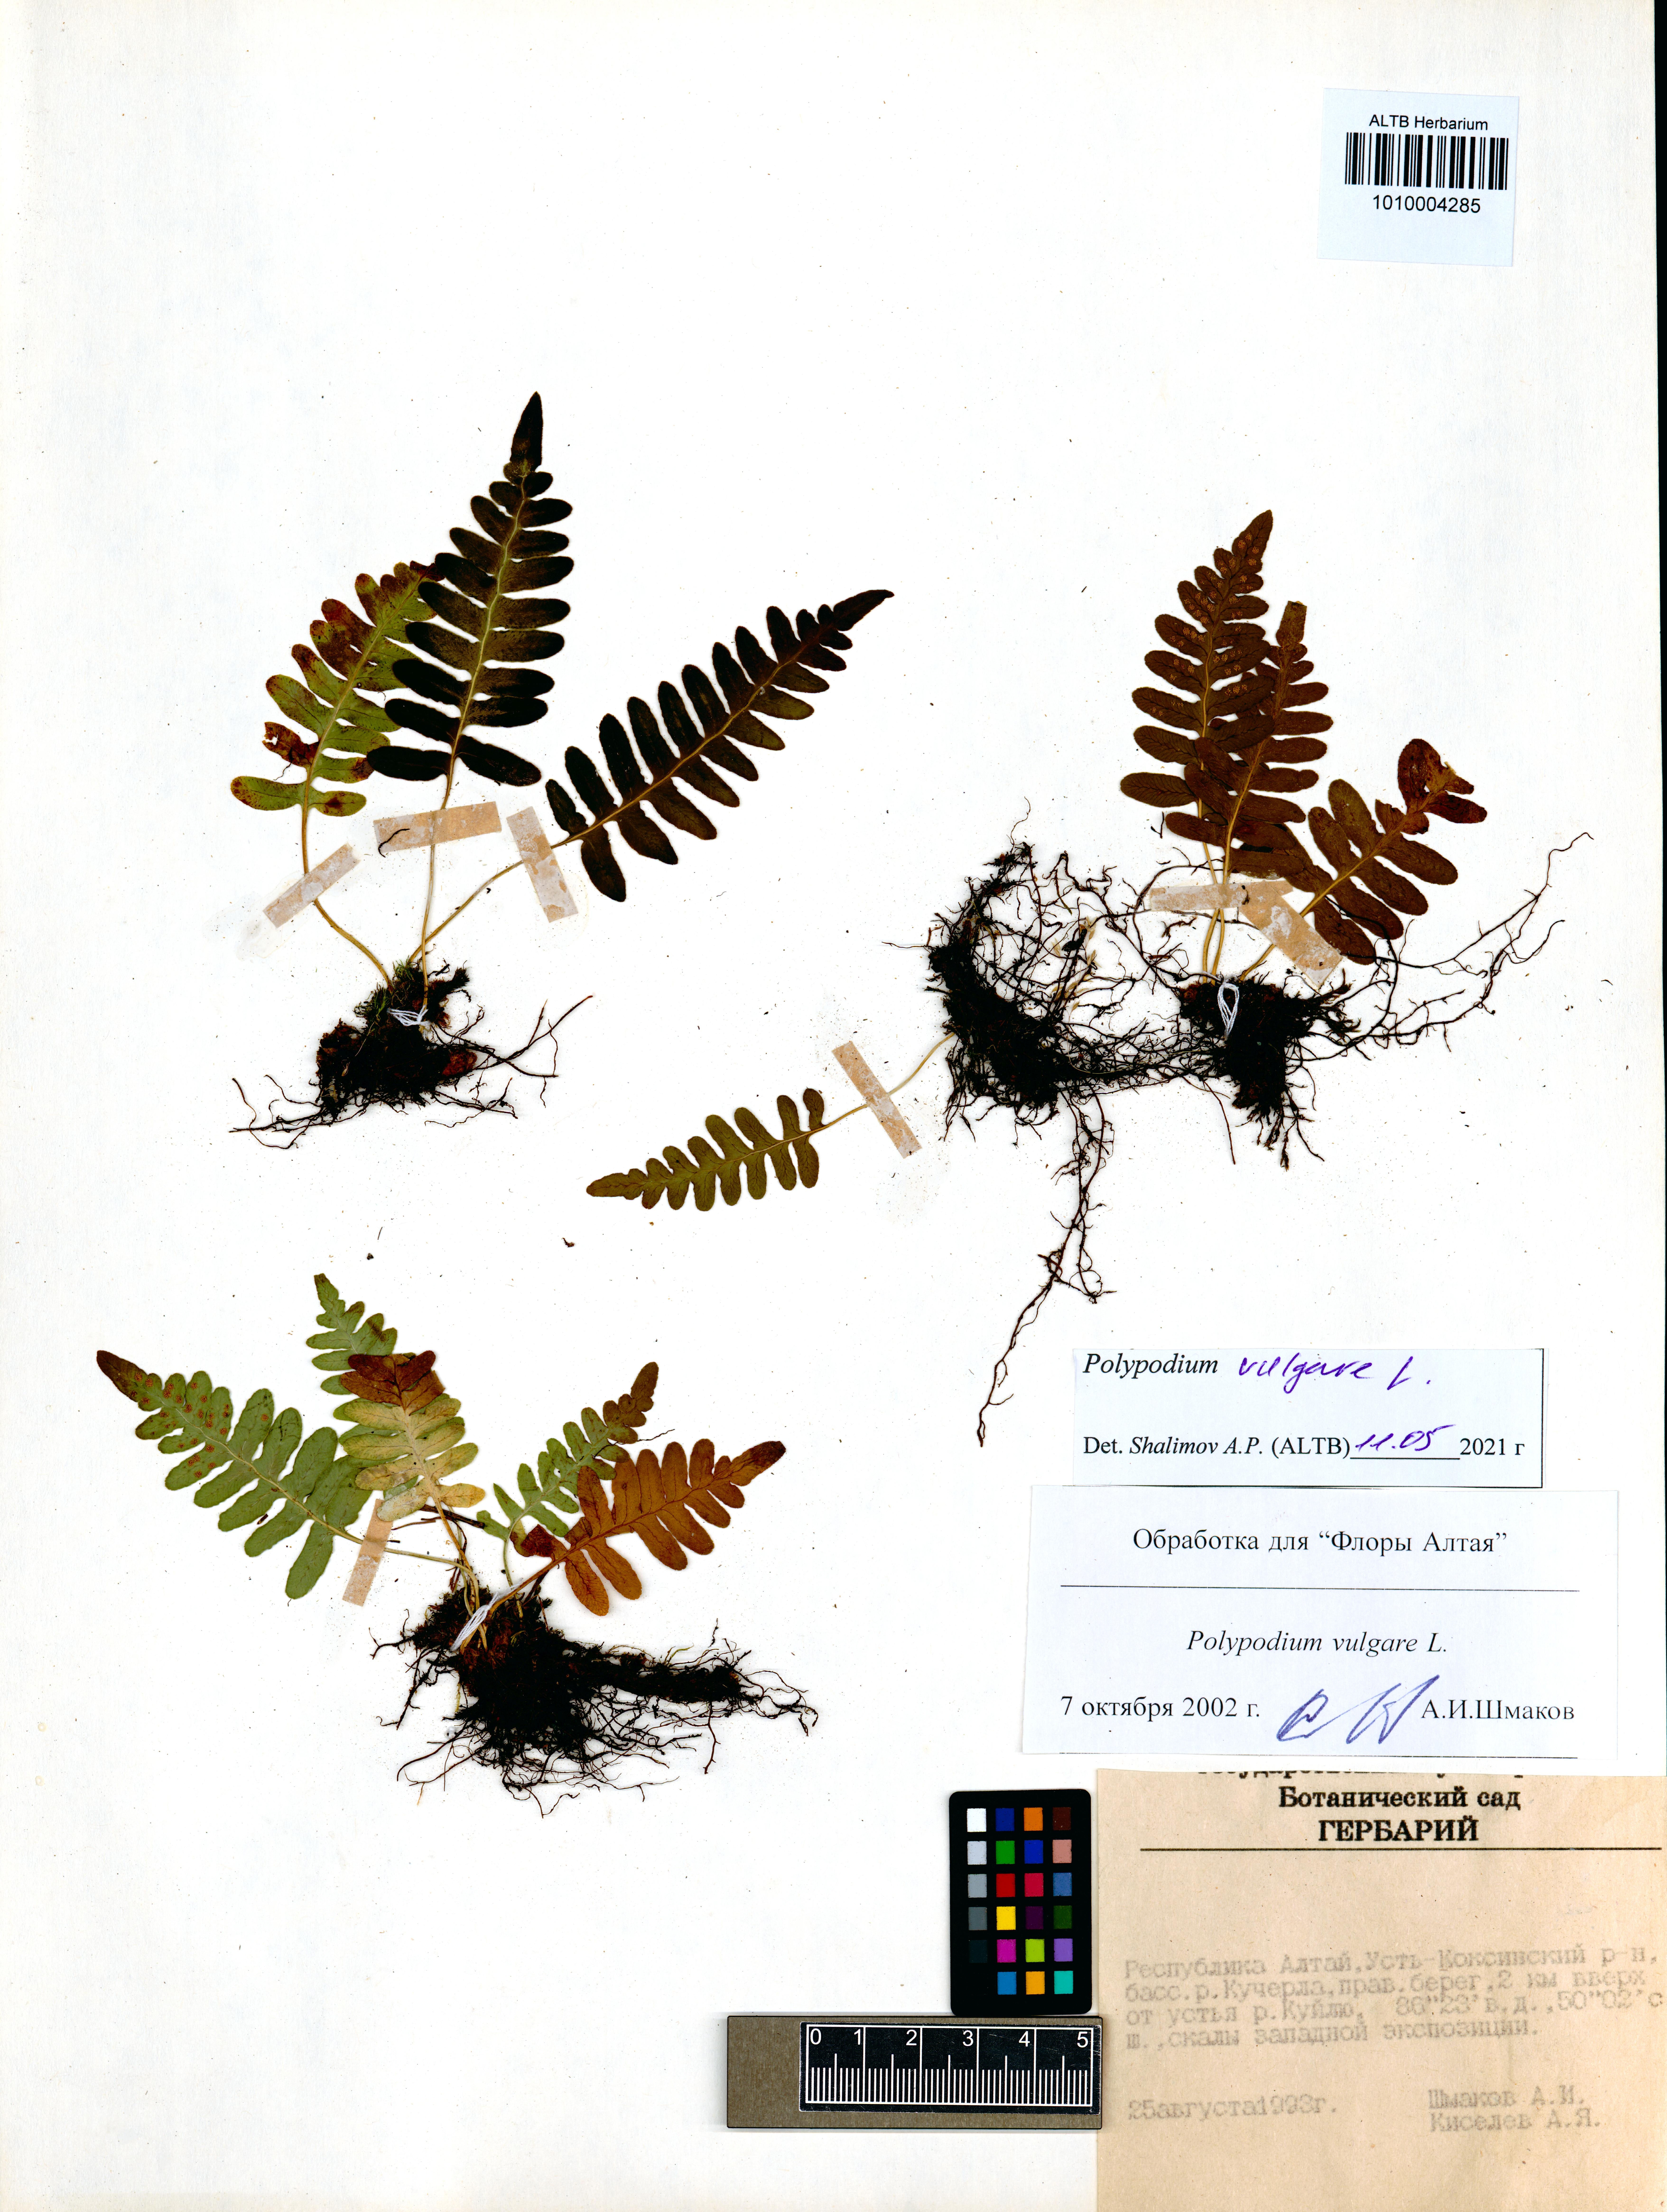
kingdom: Plantae
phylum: Tracheophyta
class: Polypodiopsida
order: Polypodiales
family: Polypodiaceae
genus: Polypodium
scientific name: Polypodium vulgare
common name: Common polypody
